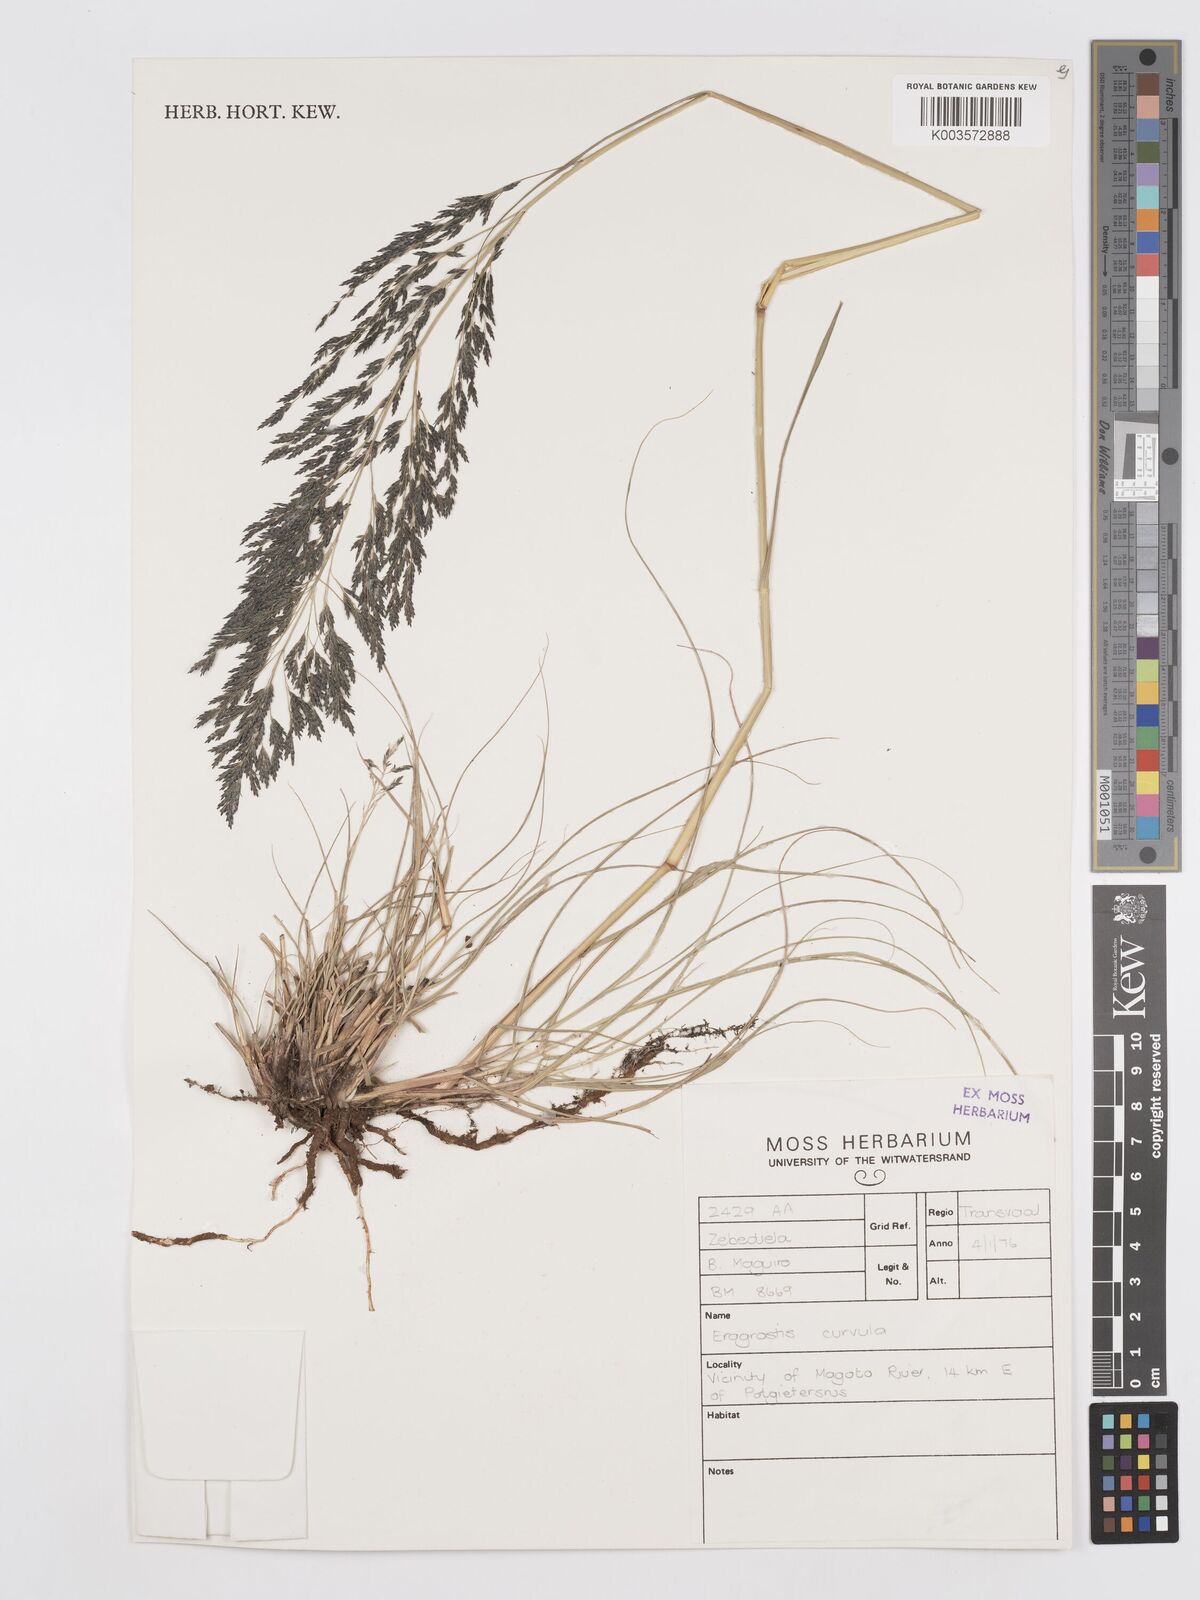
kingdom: Plantae
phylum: Tracheophyta
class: Liliopsida
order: Poales
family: Poaceae
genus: Eragrostis
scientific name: Eragrostis curvula
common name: African love-grass
